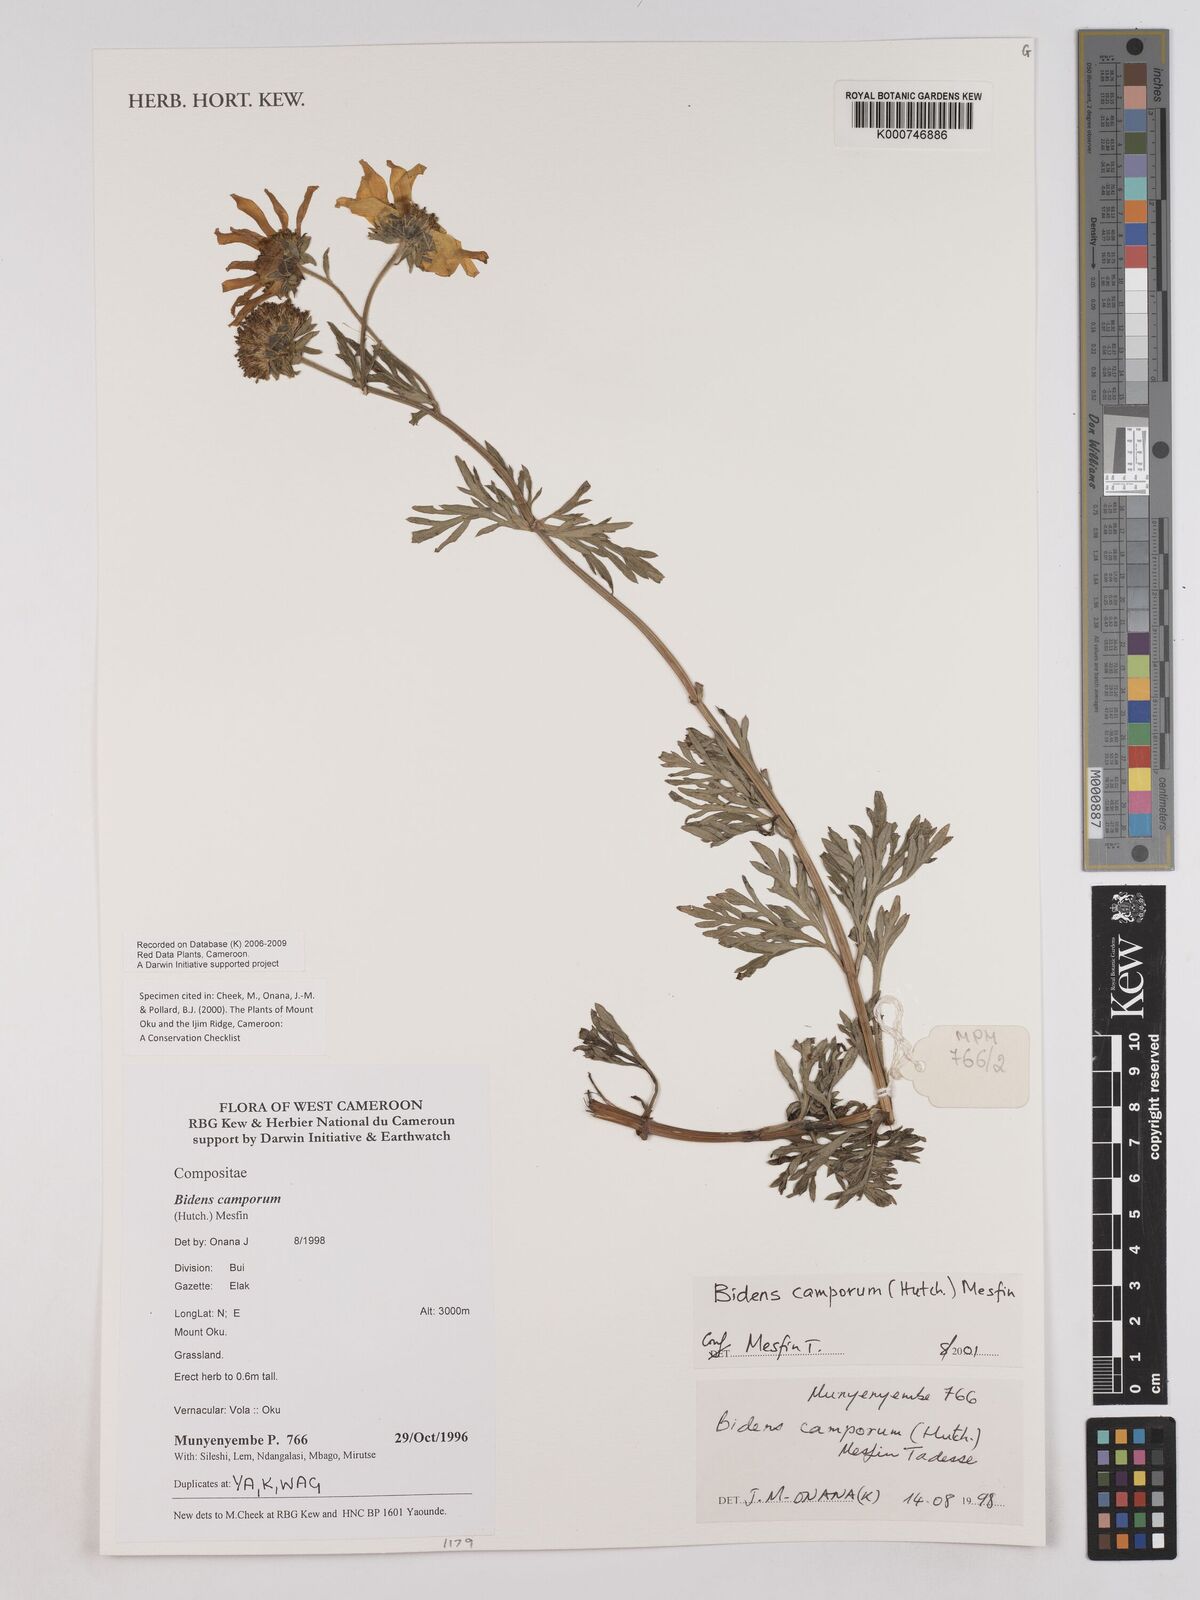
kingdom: Plantae
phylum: Tracheophyta
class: Magnoliopsida
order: Asterales
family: Asteraceae
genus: Bidens
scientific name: Bidens camporum
